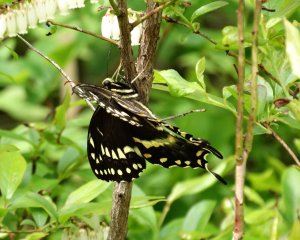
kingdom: Animalia
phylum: Arthropoda
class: Insecta
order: Lepidoptera
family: Papilionidae
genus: Pterourus
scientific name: Pterourus palamedes
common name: Palamedes Swallowtail
